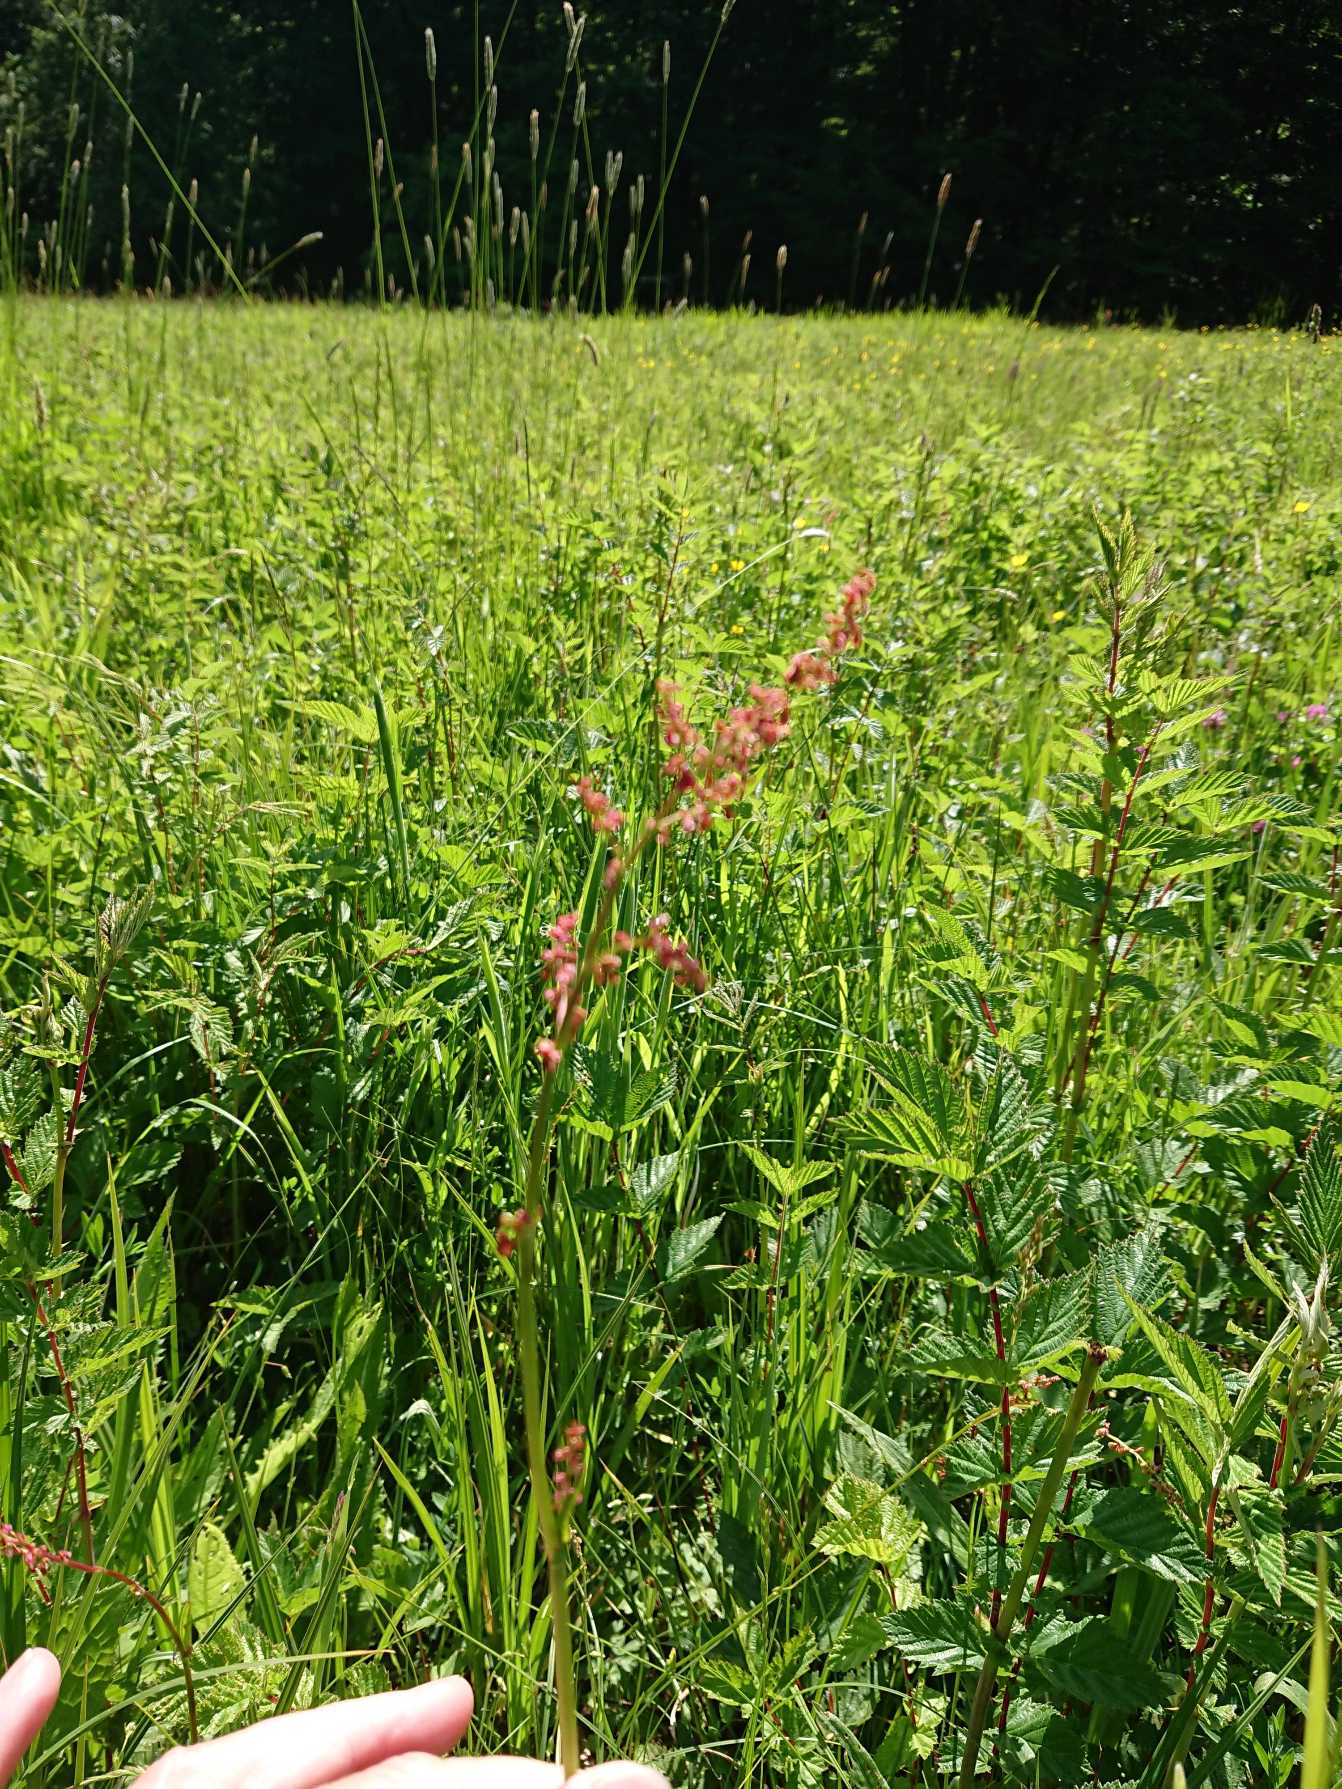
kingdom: Plantae
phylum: Tracheophyta
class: Magnoliopsida
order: Caryophyllales
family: Polygonaceae
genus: Rumex
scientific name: Rumex acetosa
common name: Almindelig syre
